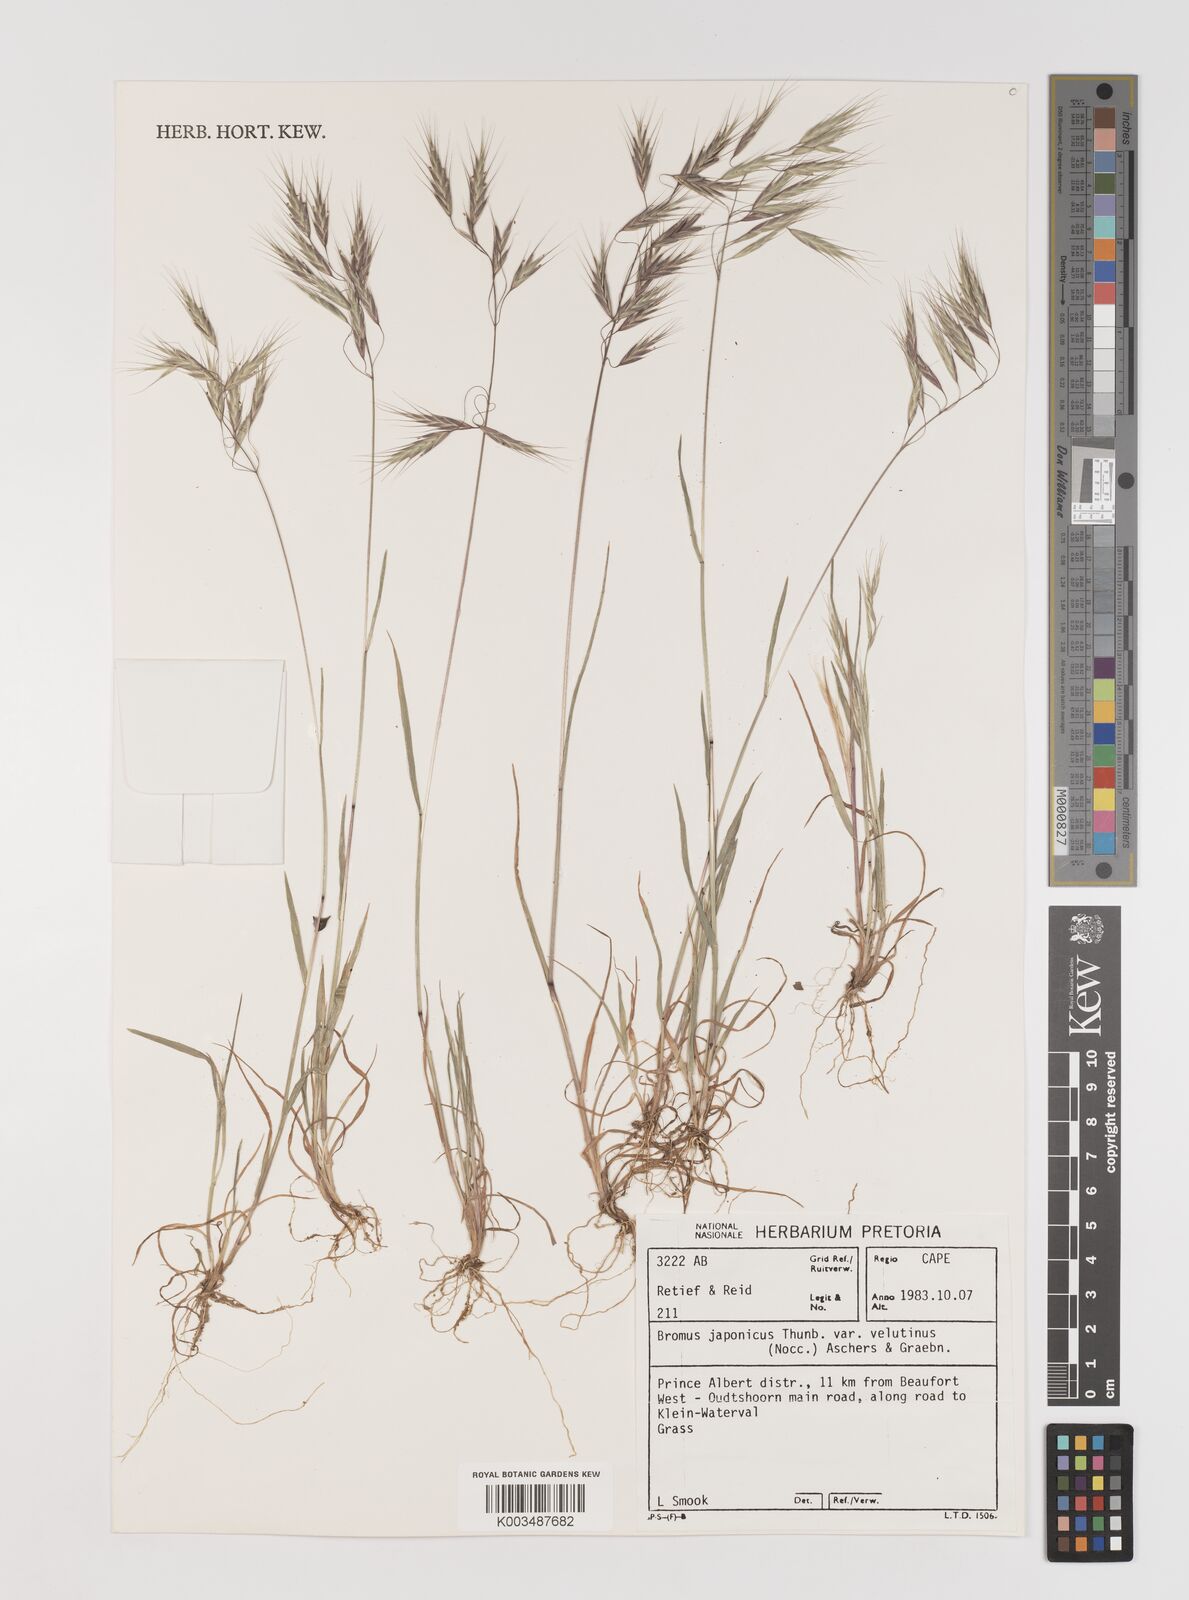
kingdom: Plantae
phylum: Tracheophyta
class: Liliopsida
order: Poales
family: Poaceae
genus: Bromus
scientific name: Bromus japonicus
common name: Japanese brome
